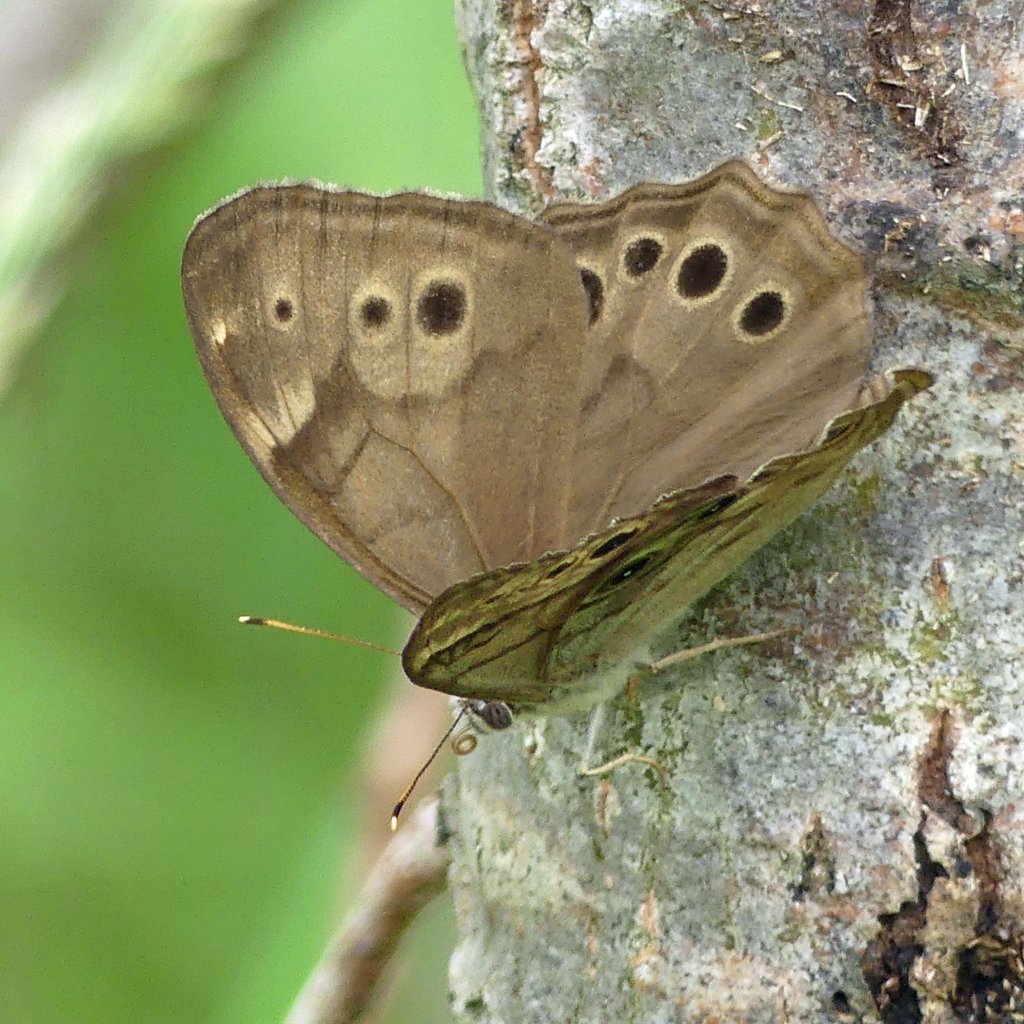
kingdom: Animalia
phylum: Arthropoda
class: Insecta
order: Lepidoptera
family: Nymphalidae
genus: Lethe
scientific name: Lethe anthedon
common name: Northern Pearly-Eye
